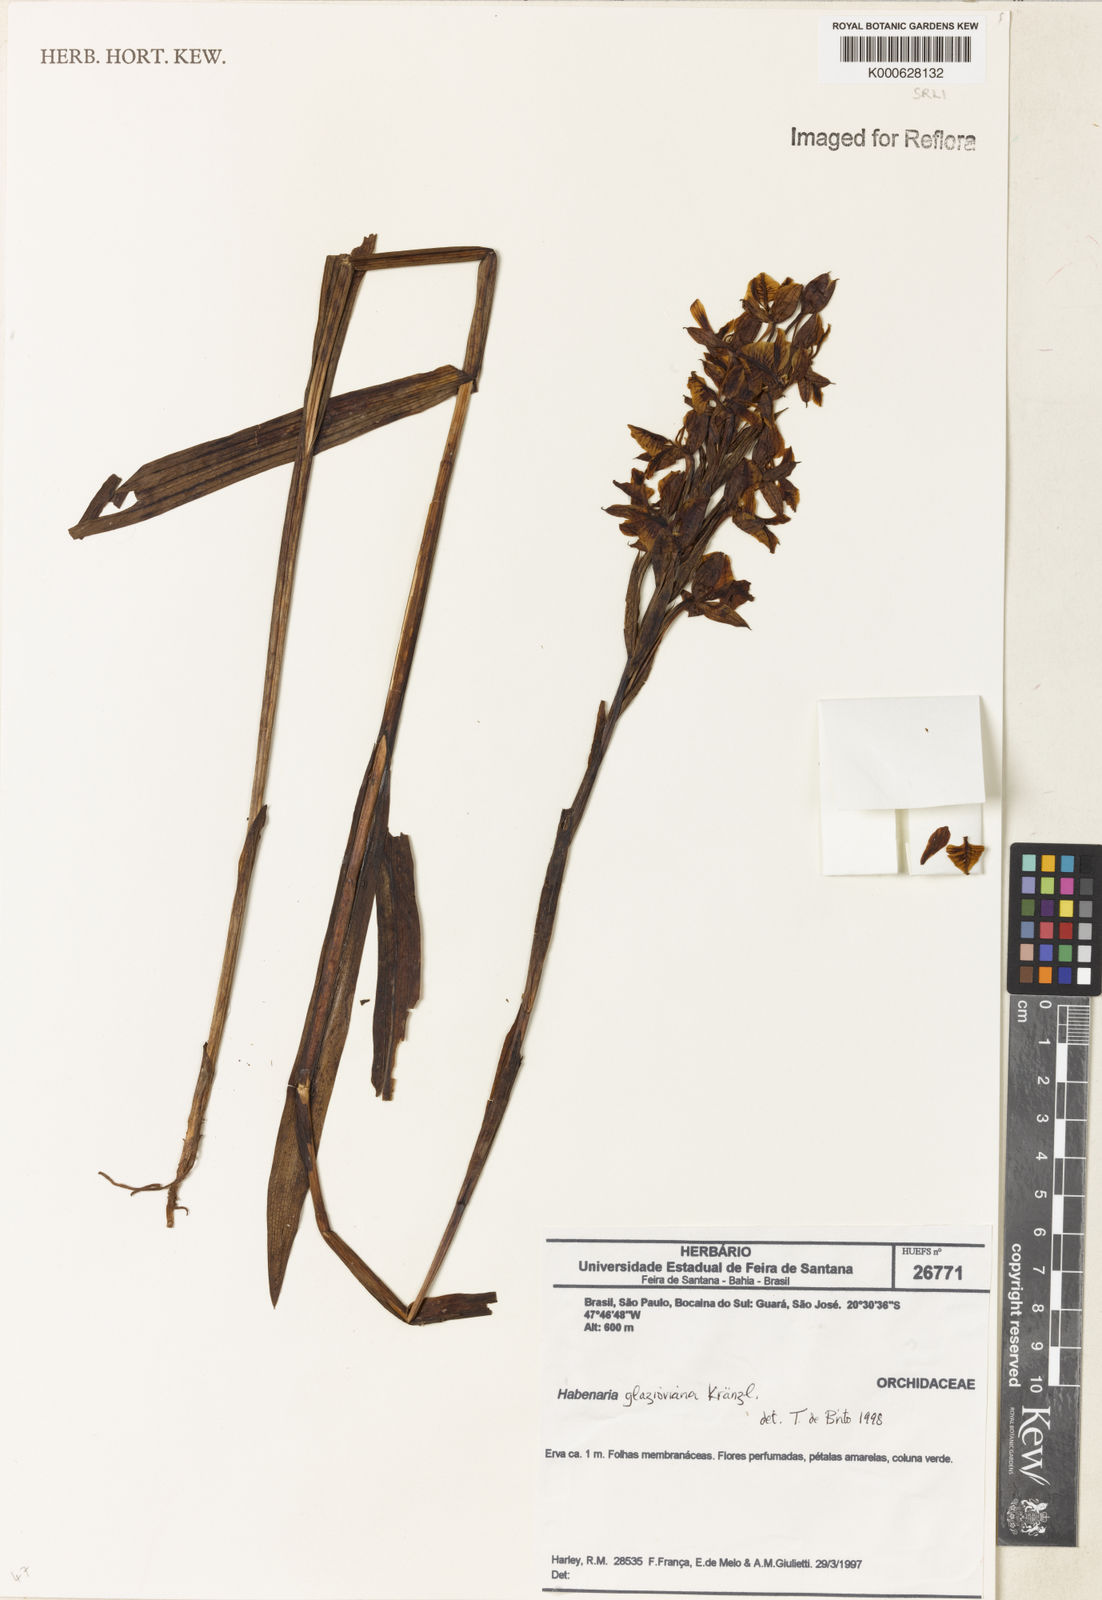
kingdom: Plantae
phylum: Tracheophyta
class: Liliopsida
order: Asparagales
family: Orchidaceae
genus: Habenaria
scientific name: Habenaria
